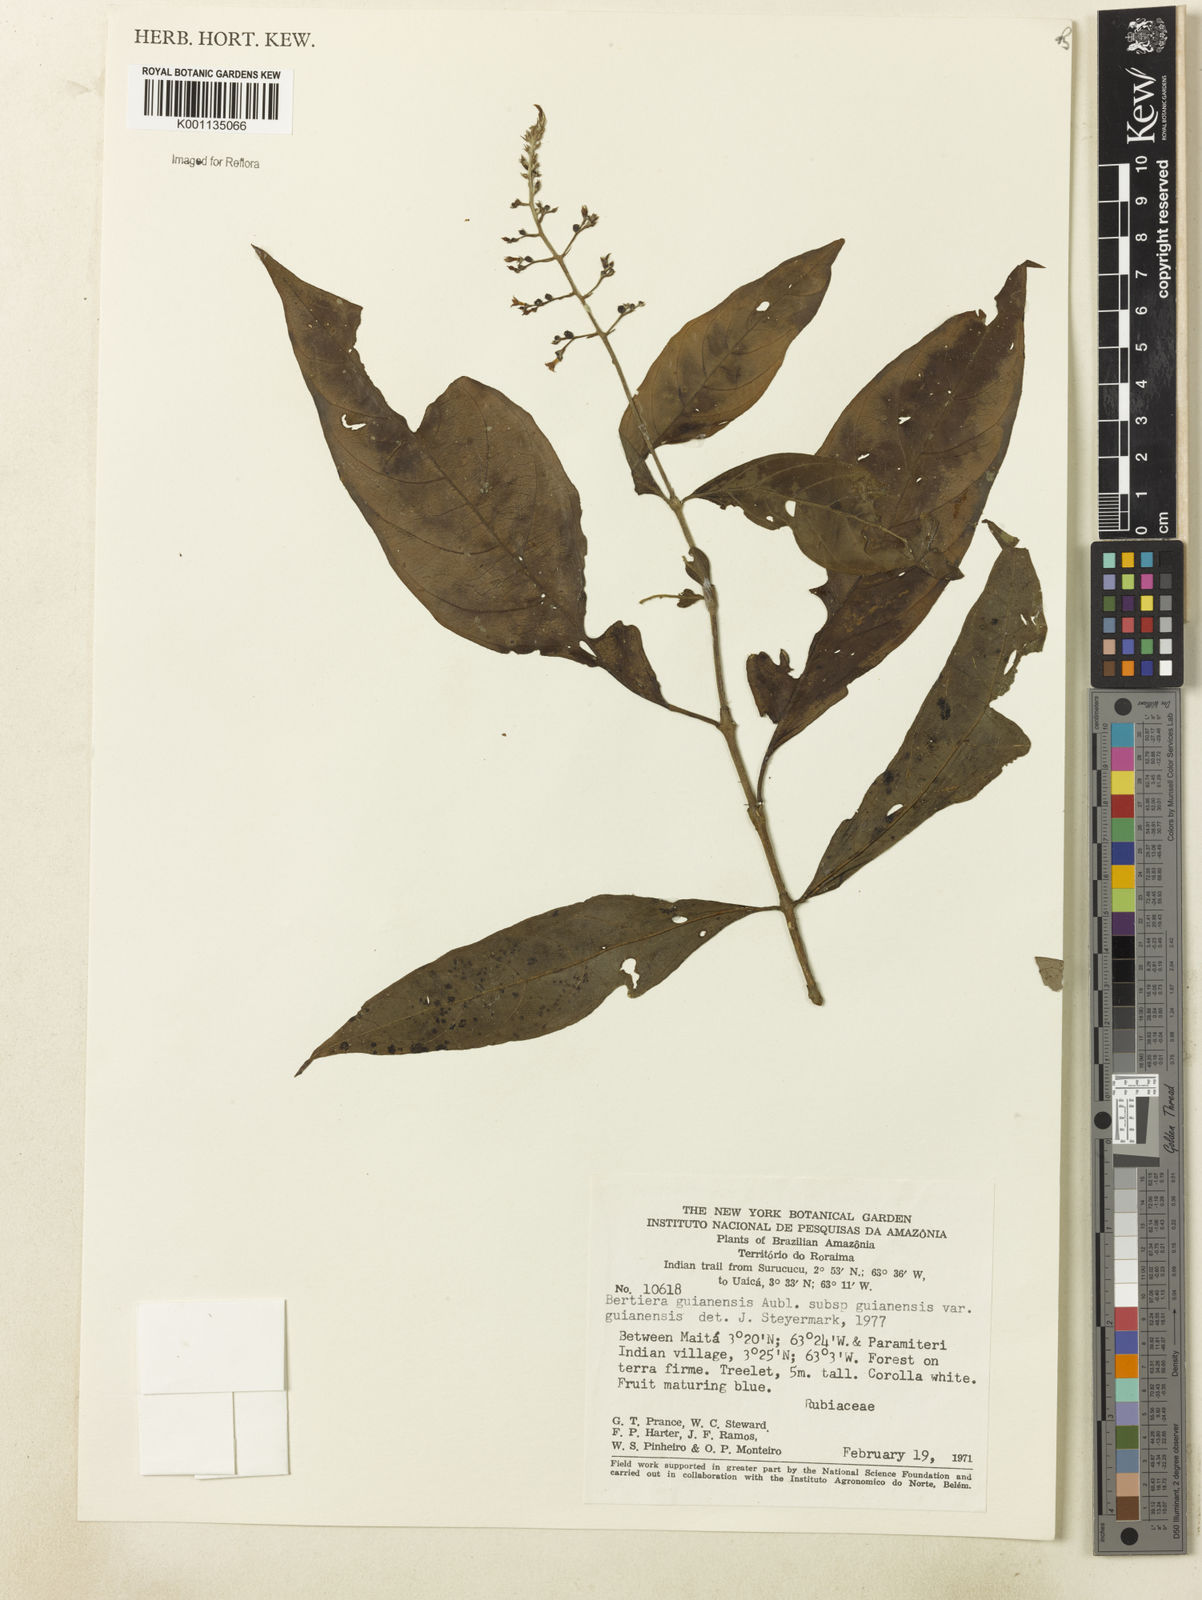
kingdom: Plantae
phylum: Tracheophyta
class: Magnoliopsida
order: Gentianales
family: Rubiaceae
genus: Bertiera
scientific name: Bertiera guianensis
